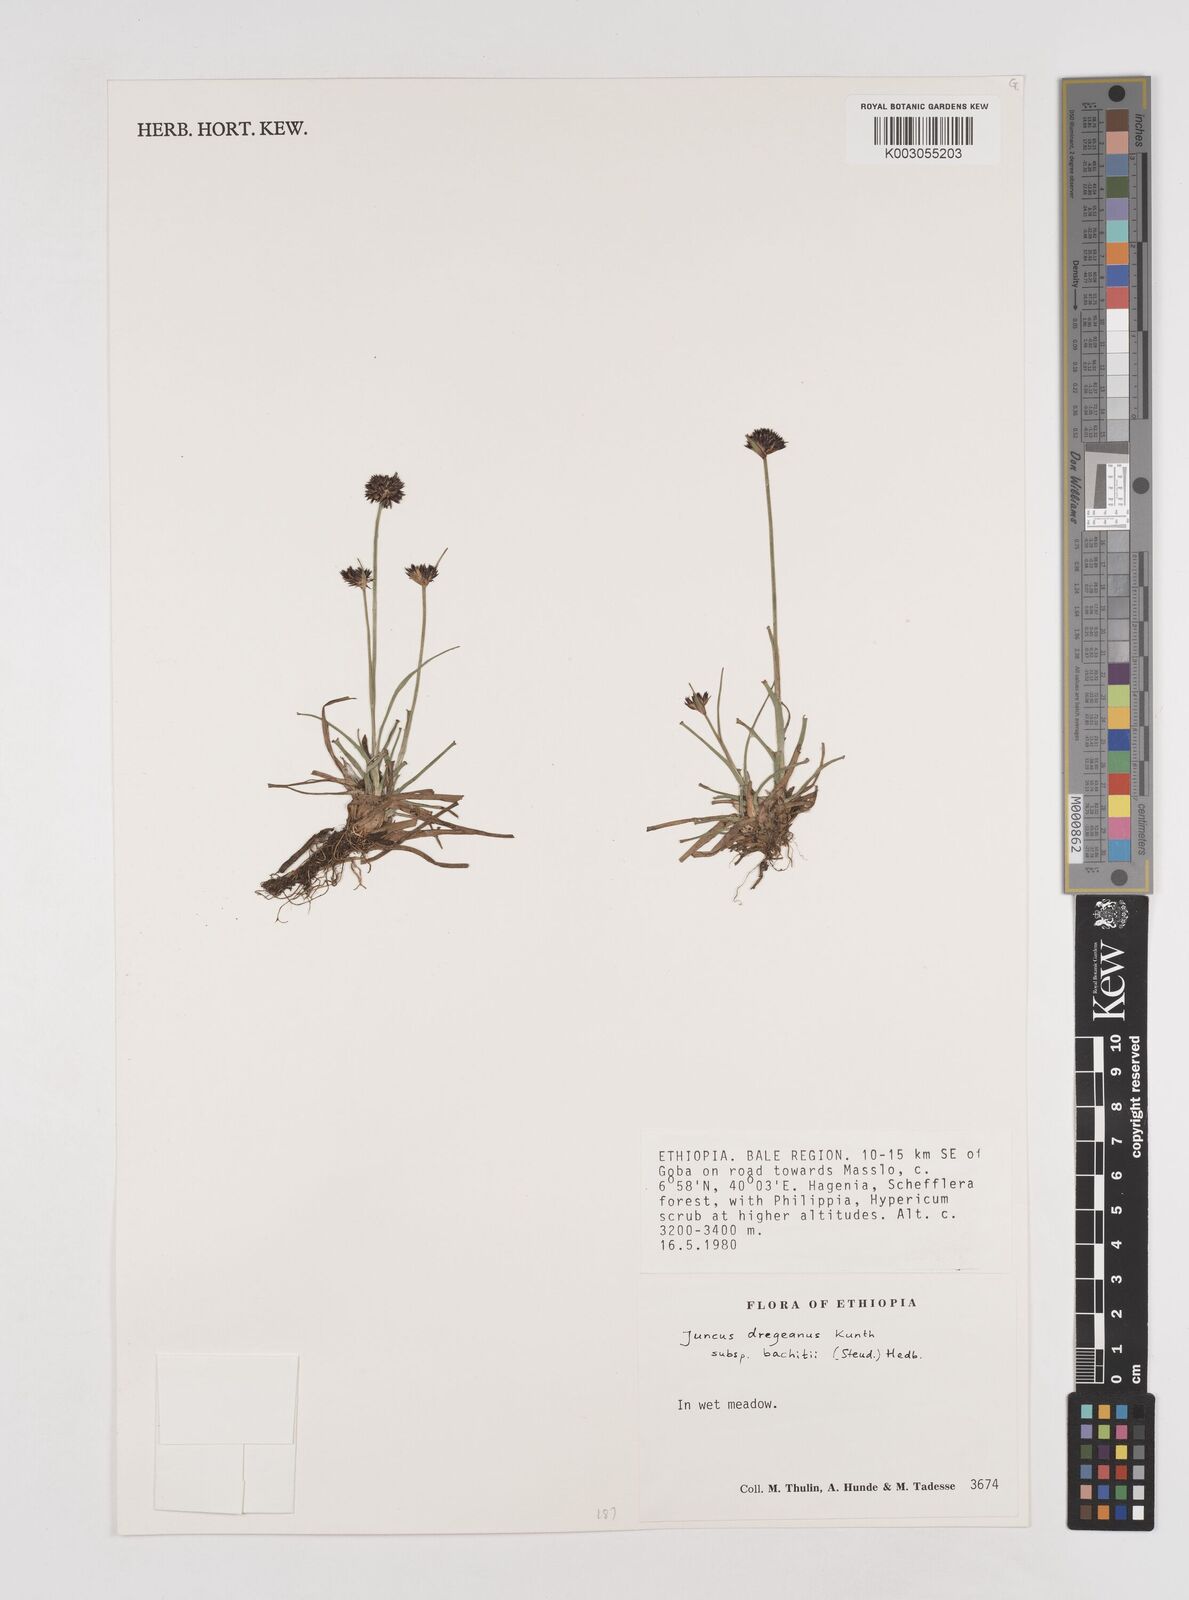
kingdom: Plantae
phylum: Tracheophyta
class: Liliopsida
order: Poales
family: Juncaceae
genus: Juncus
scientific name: Juncus dregeanus
